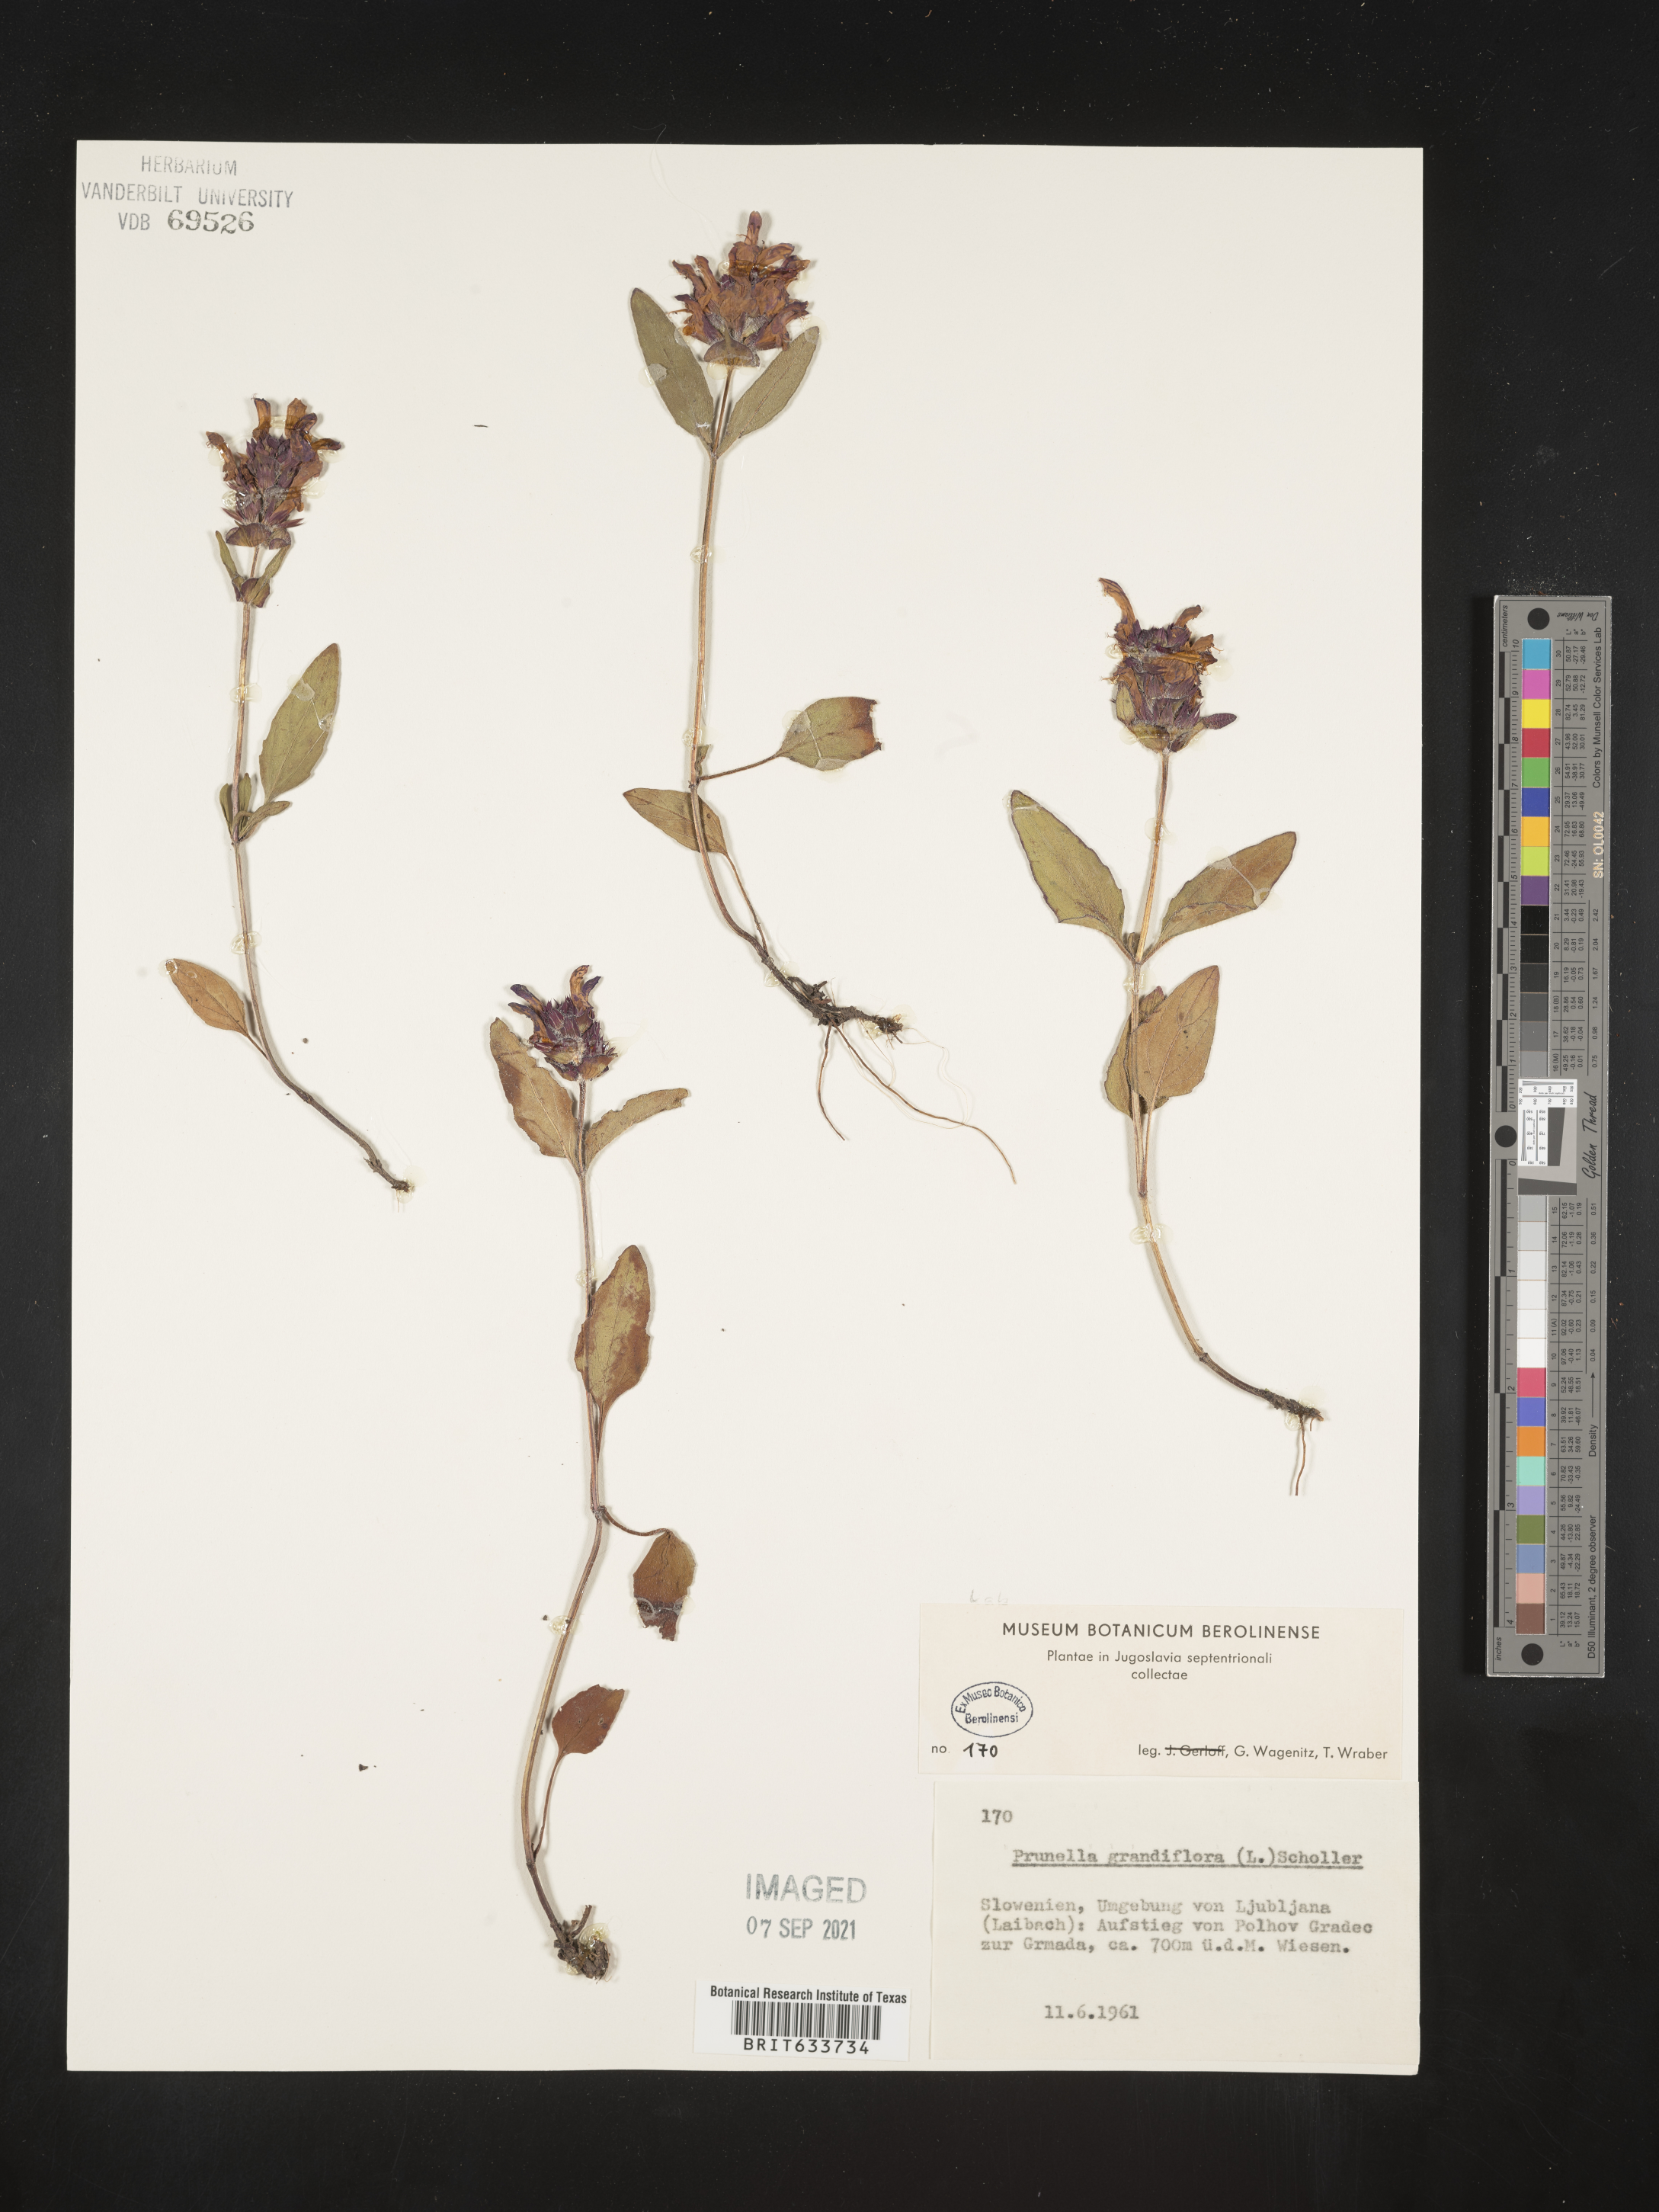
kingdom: Plantae
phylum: Tracheophyta
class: Magnoliopsida
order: Lamiales
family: Lamiaceae
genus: Prunella
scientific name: Prunella
